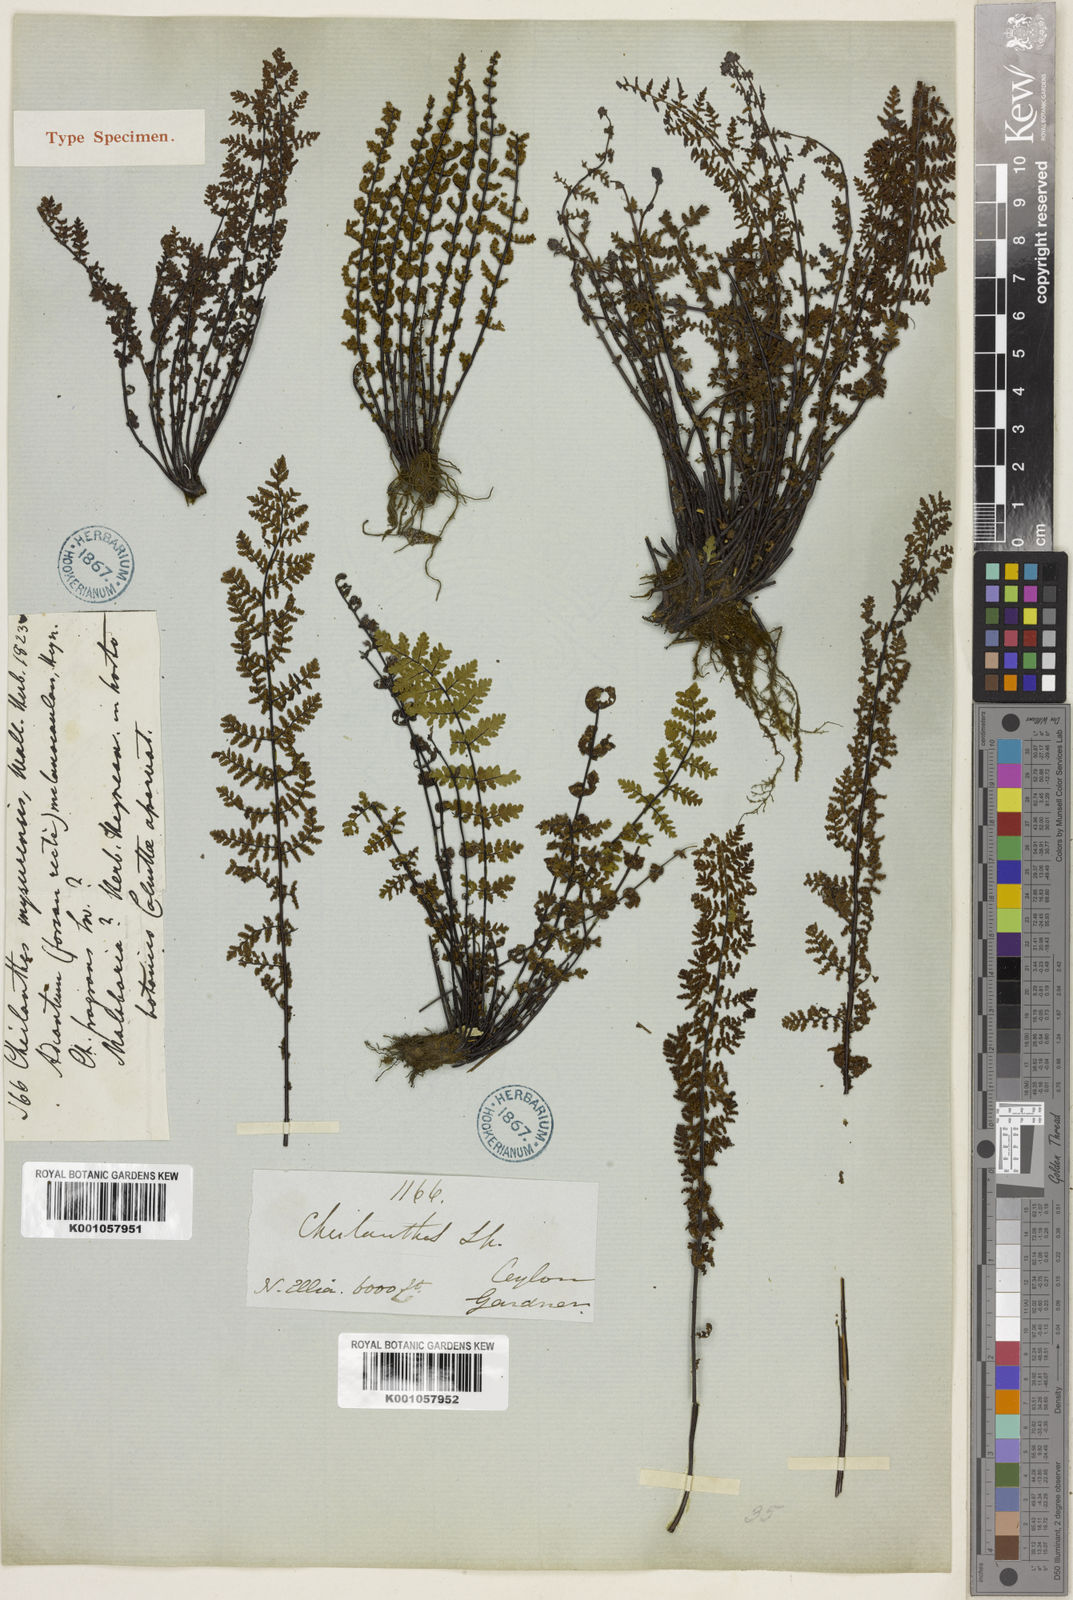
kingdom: Plantae
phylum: Tracheophyta
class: Polypodiopsida
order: Polypodiales
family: Pteridaceae
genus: Oeosporangium
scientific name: Oeosporangium elegans
